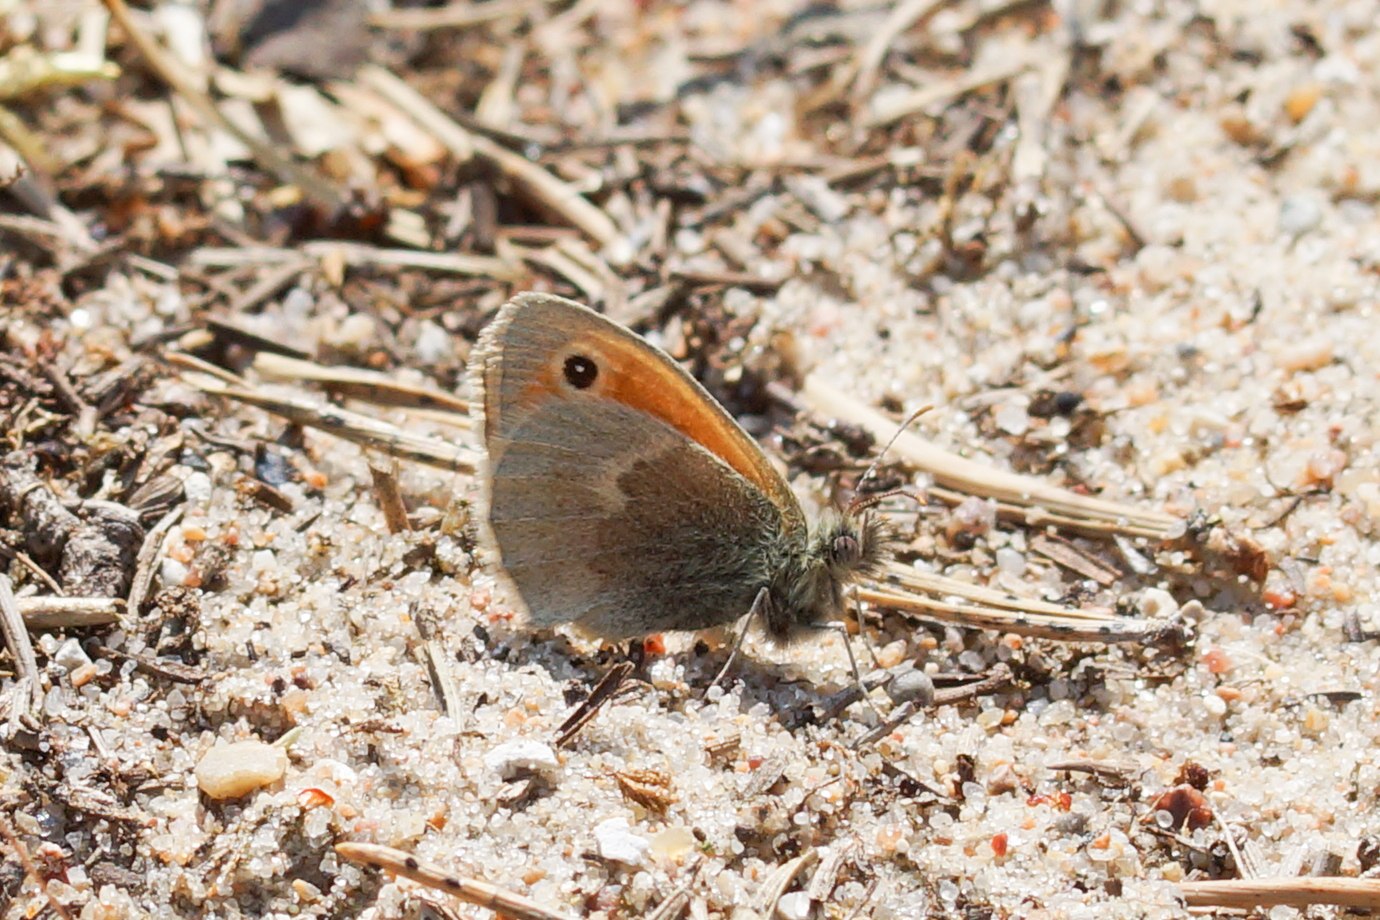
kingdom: Animalia
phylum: Arthropoda
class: Insecta
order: Lepidoptera
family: Nymphalidae
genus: Coenonympha
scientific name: Coenonympha pamphilus
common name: Okkergul randøje
